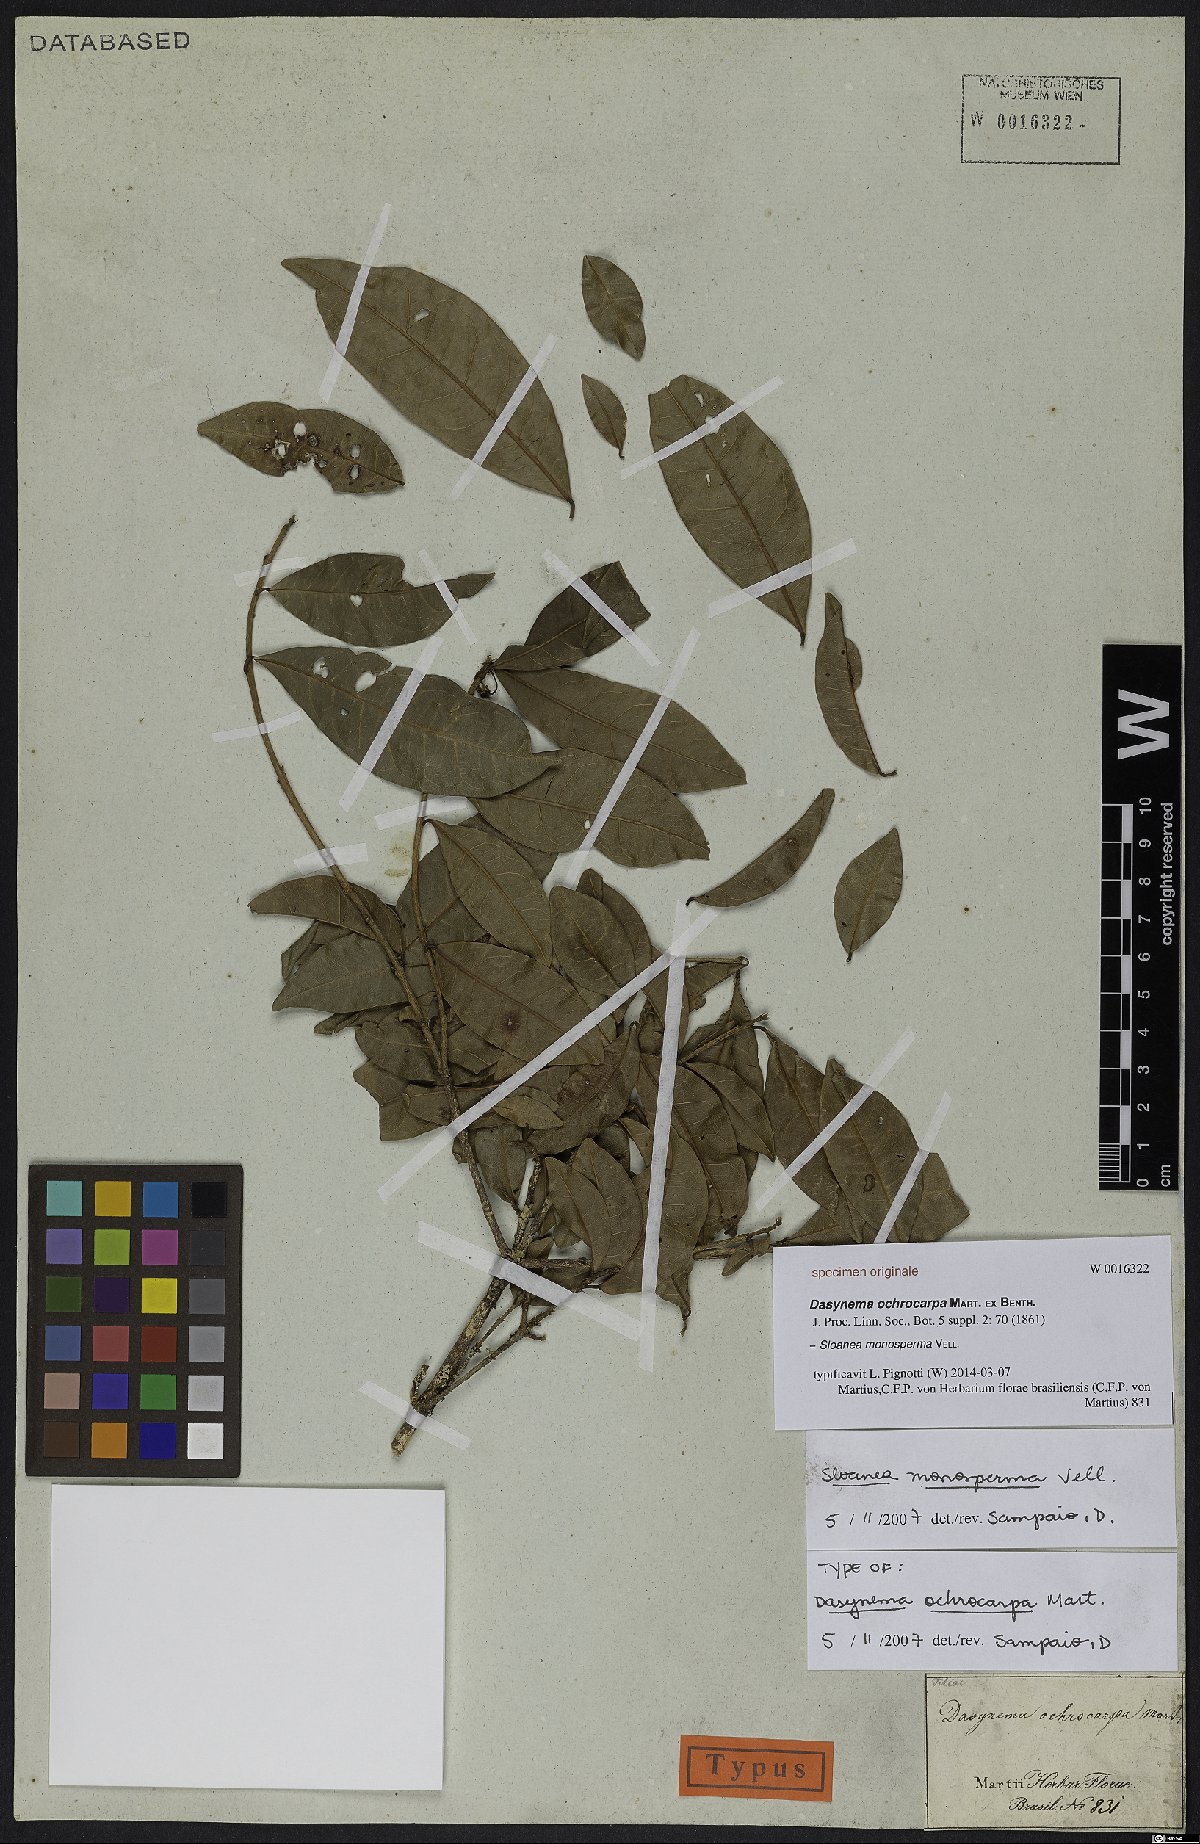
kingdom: Plantae
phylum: Tracheophyta
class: Magnoliopsida
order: Oxalidales
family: Elaeocarpaceae
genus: Sloanea
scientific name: Sloanea hirsuta
